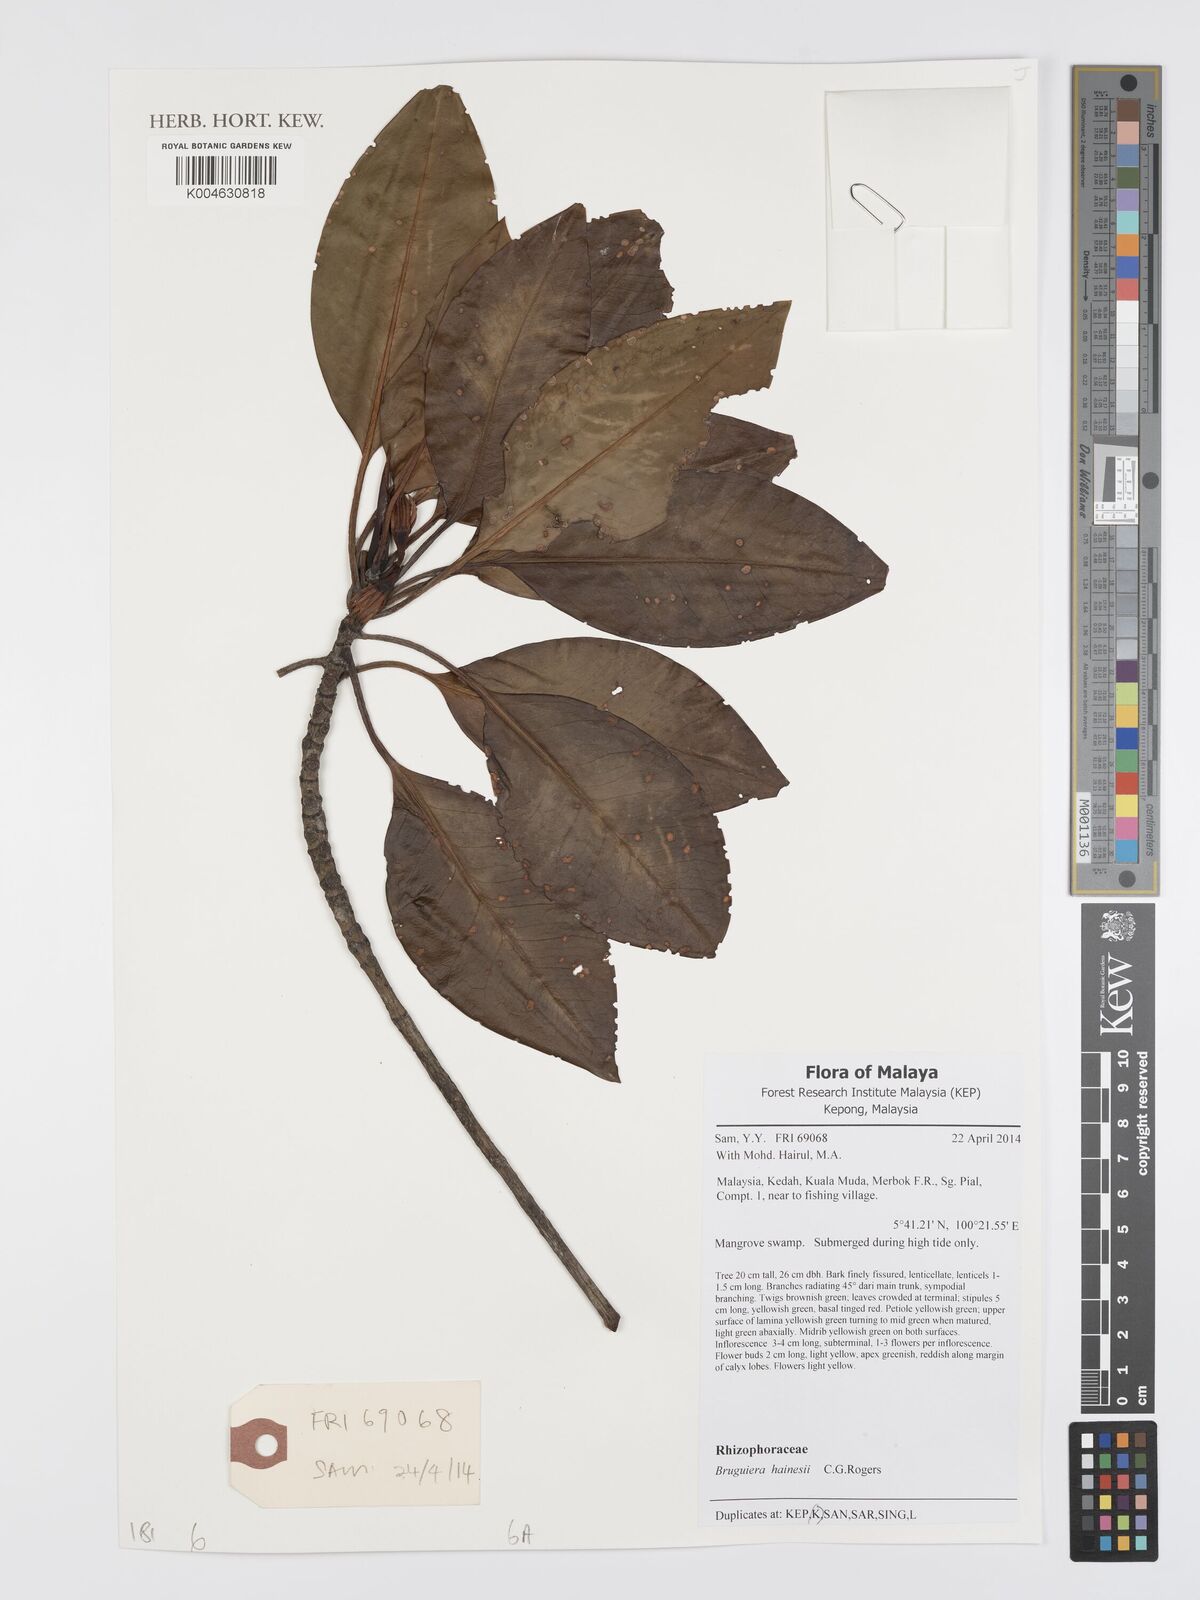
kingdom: Plantae
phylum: Tracheophyta
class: Magnoliopsida
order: Malpighiales
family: Rhizophoraceae
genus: Bruguiera
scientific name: Bruguiera hainesii
